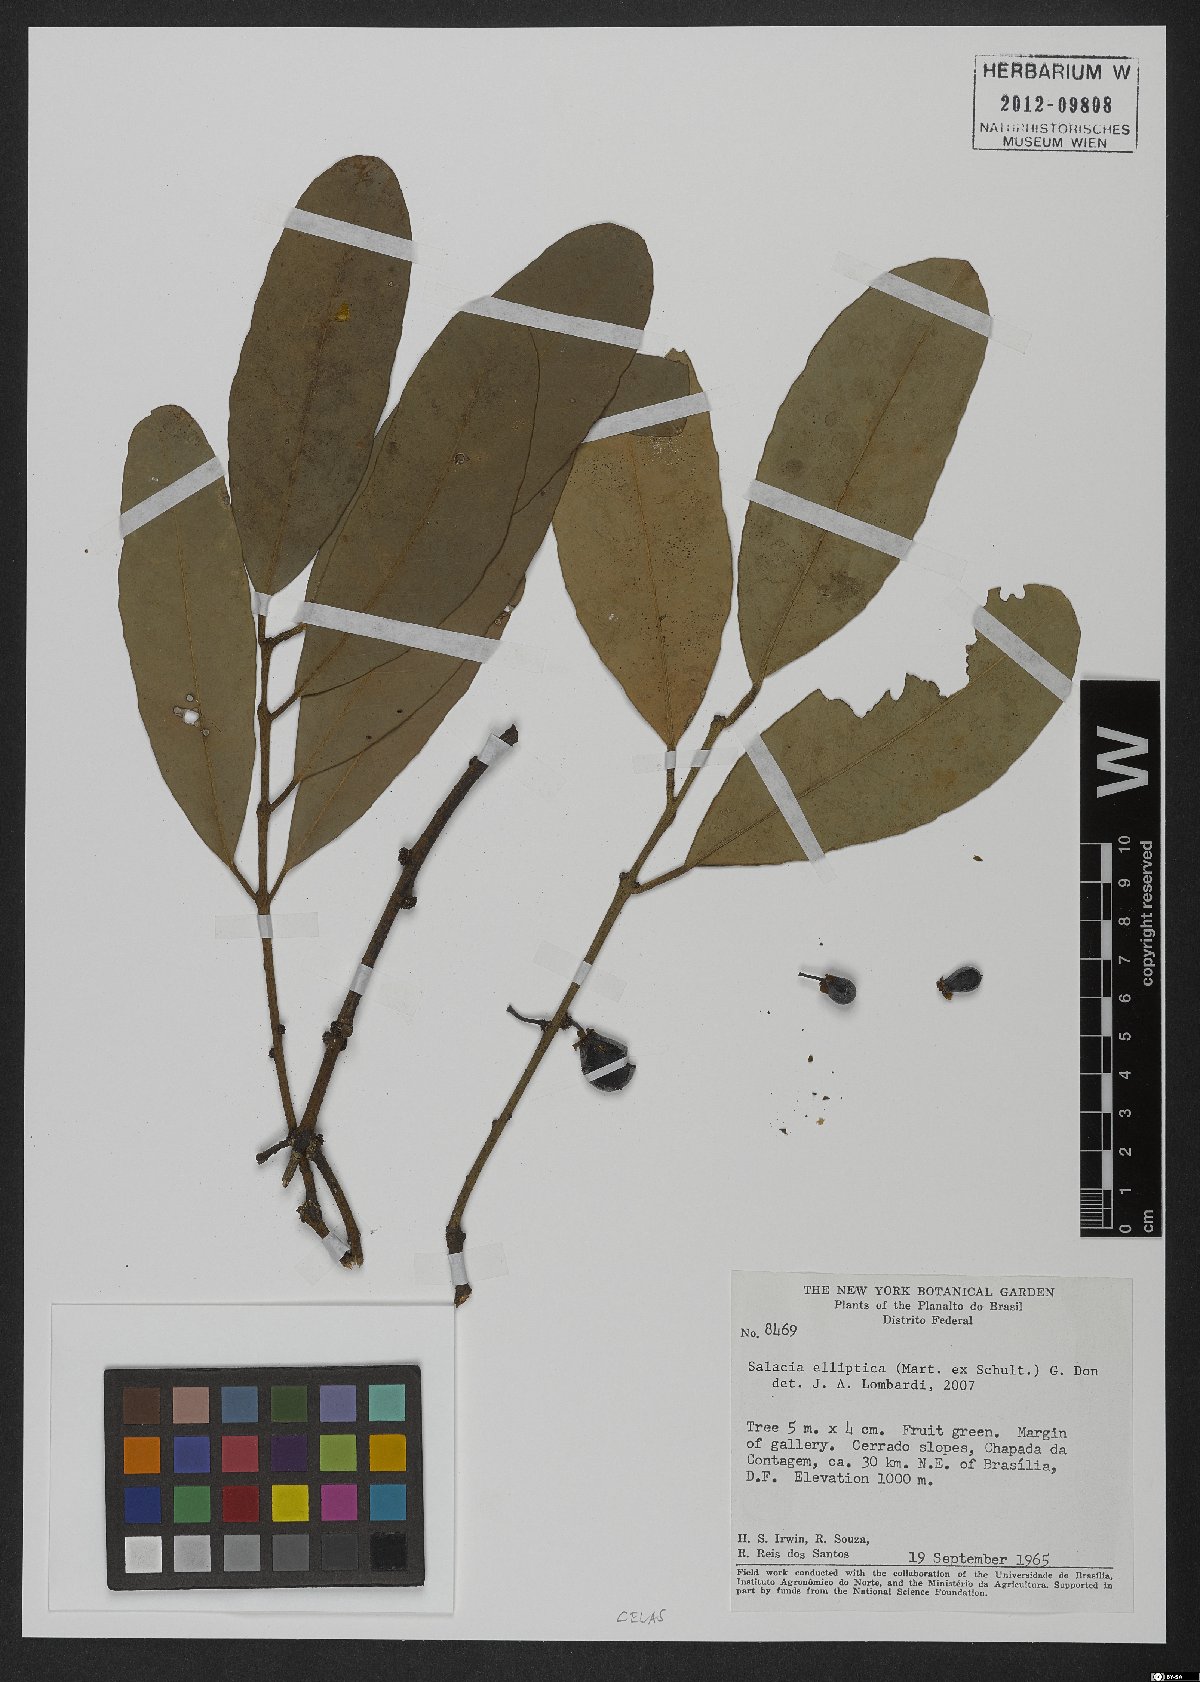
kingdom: Plantae
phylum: Tracheophyta
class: Magnoliopsida
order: Celastrales
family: Celastraceae
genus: Salacia
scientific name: Salacia elliptica
